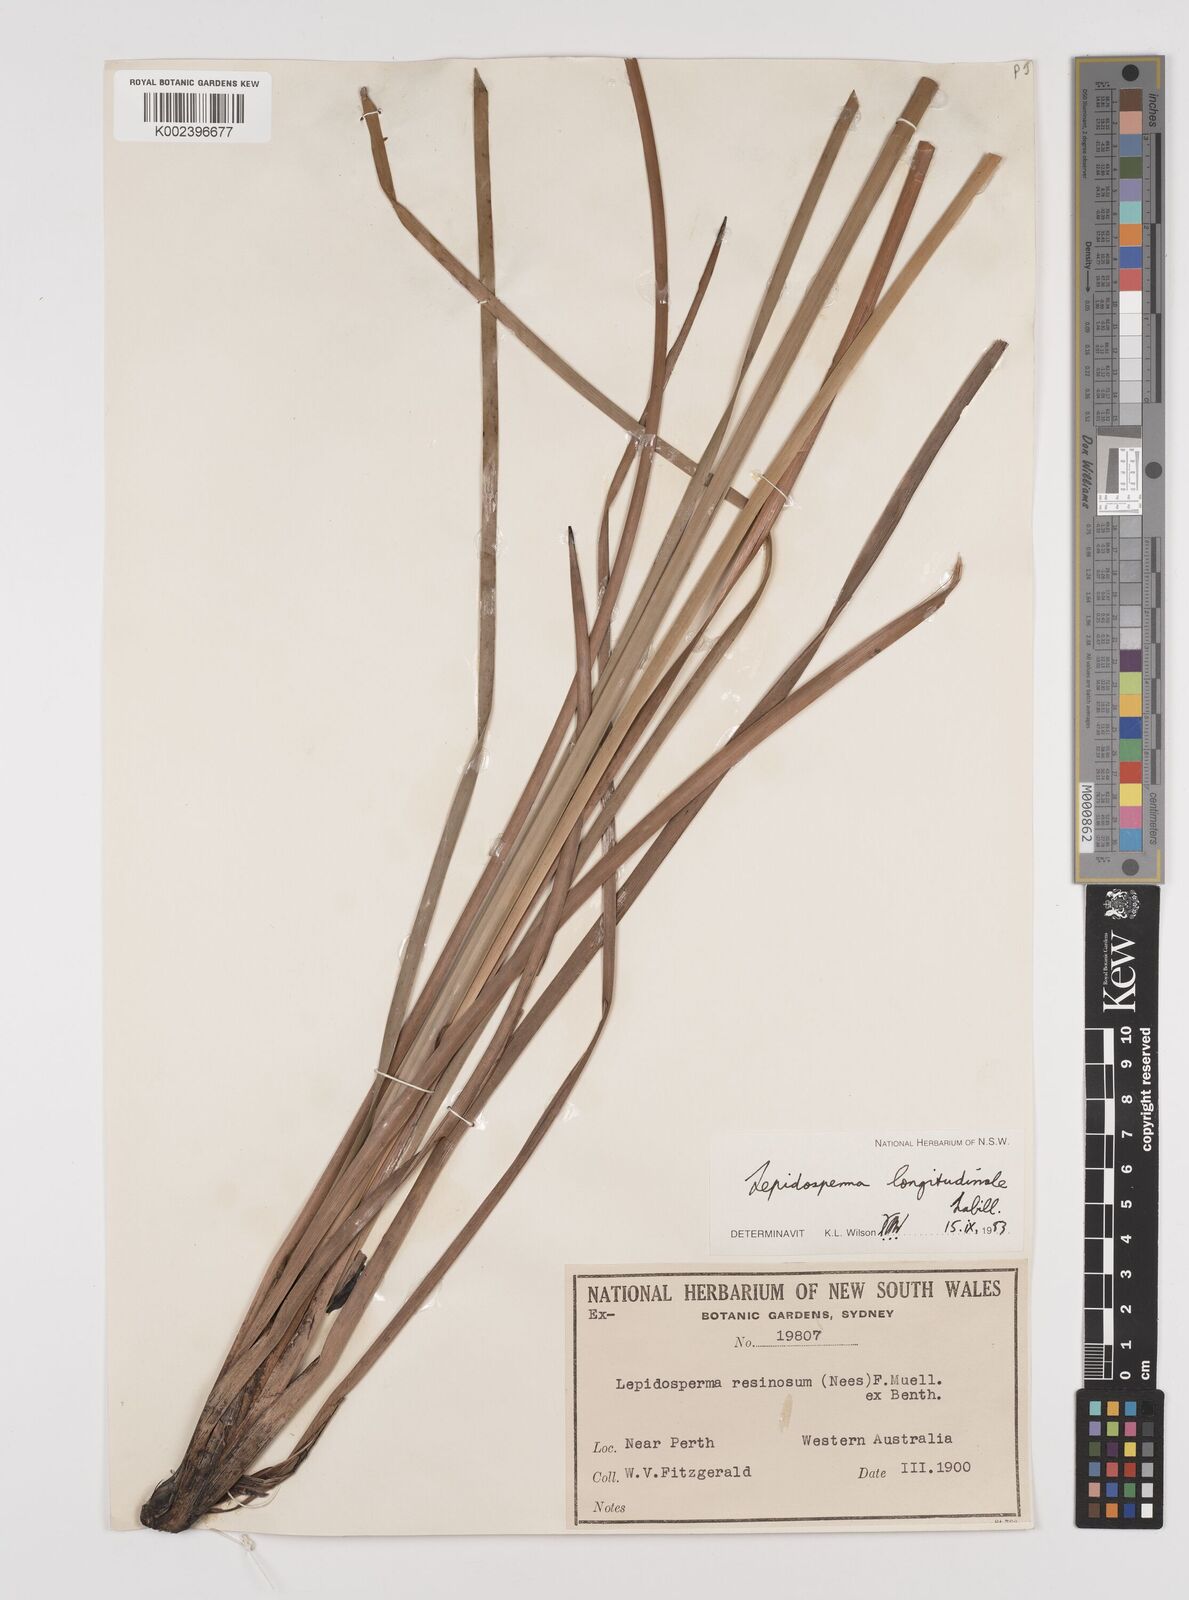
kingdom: Plantae
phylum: Tracheophyta
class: Liliopsida
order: Poales
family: Cyperaceae
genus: Lepidosperma
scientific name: Lepidosperma longitudinale
